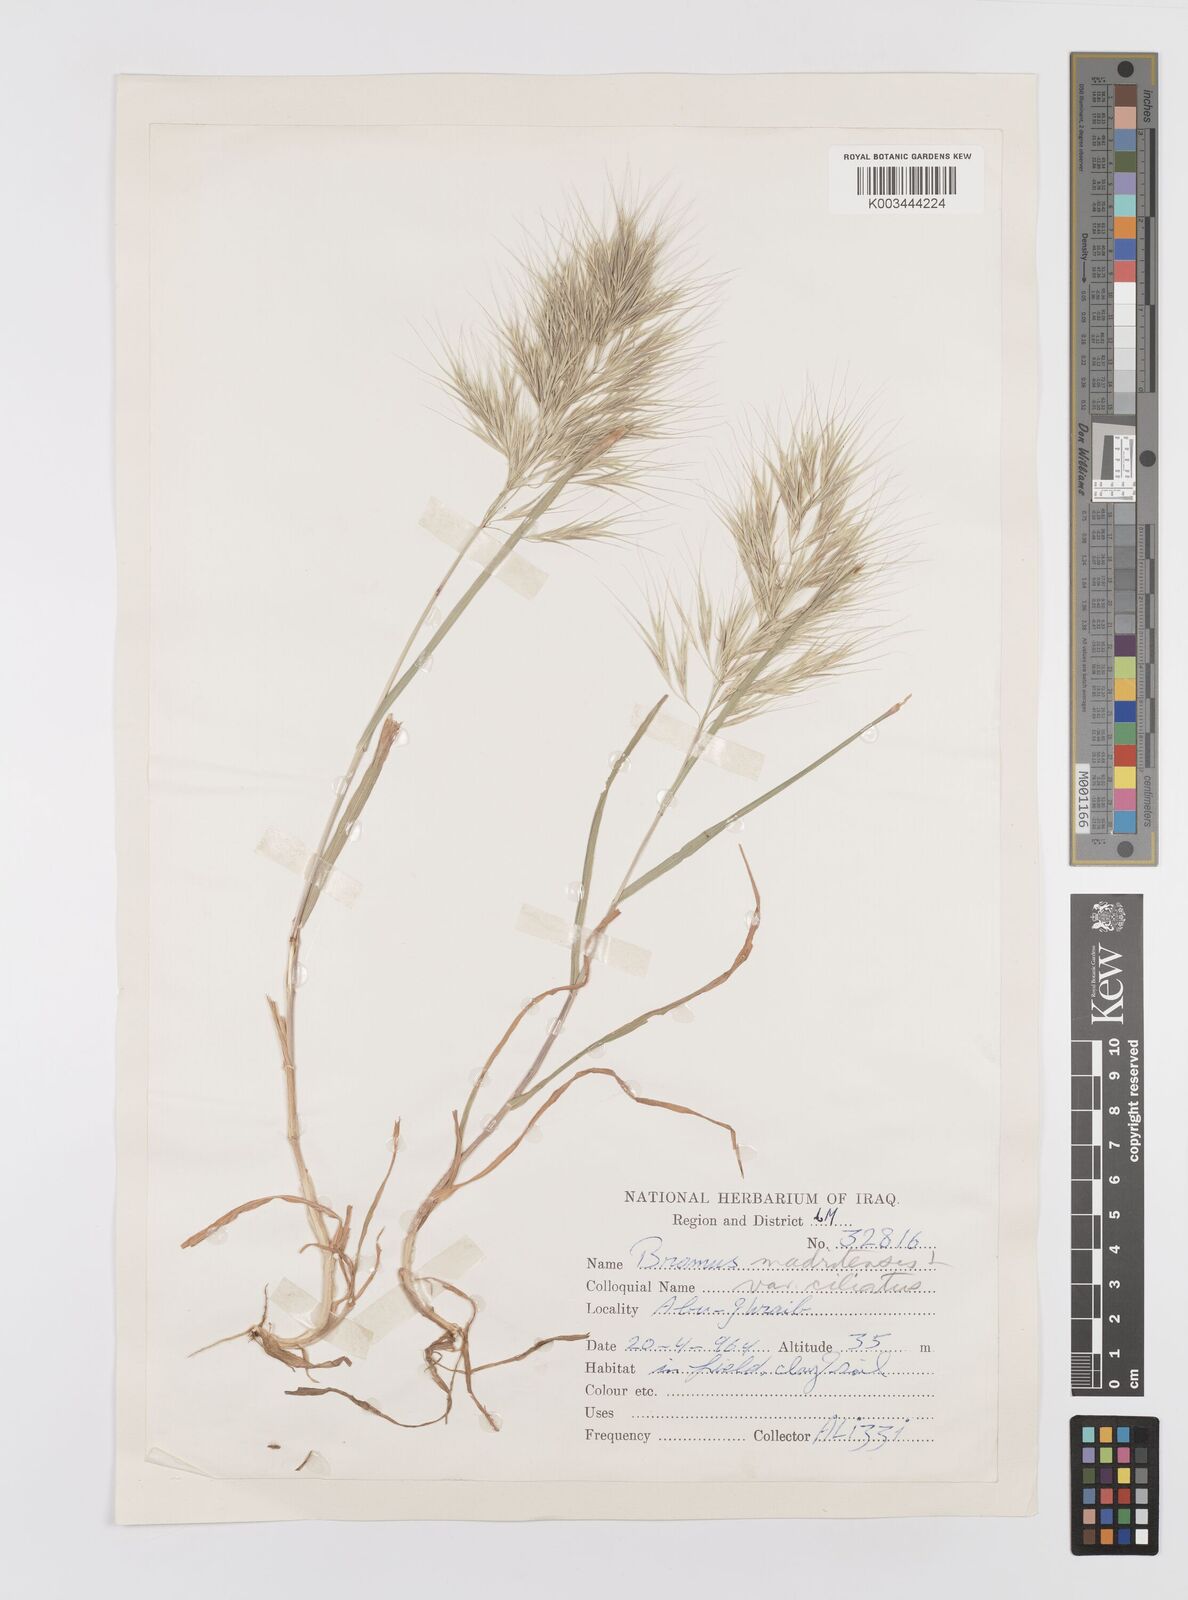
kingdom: Plantae
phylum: Tracheophyta
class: Liliopsida
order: Poales
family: Poaceae
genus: Bromus
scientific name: Bromus madritensis
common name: Compact brome
